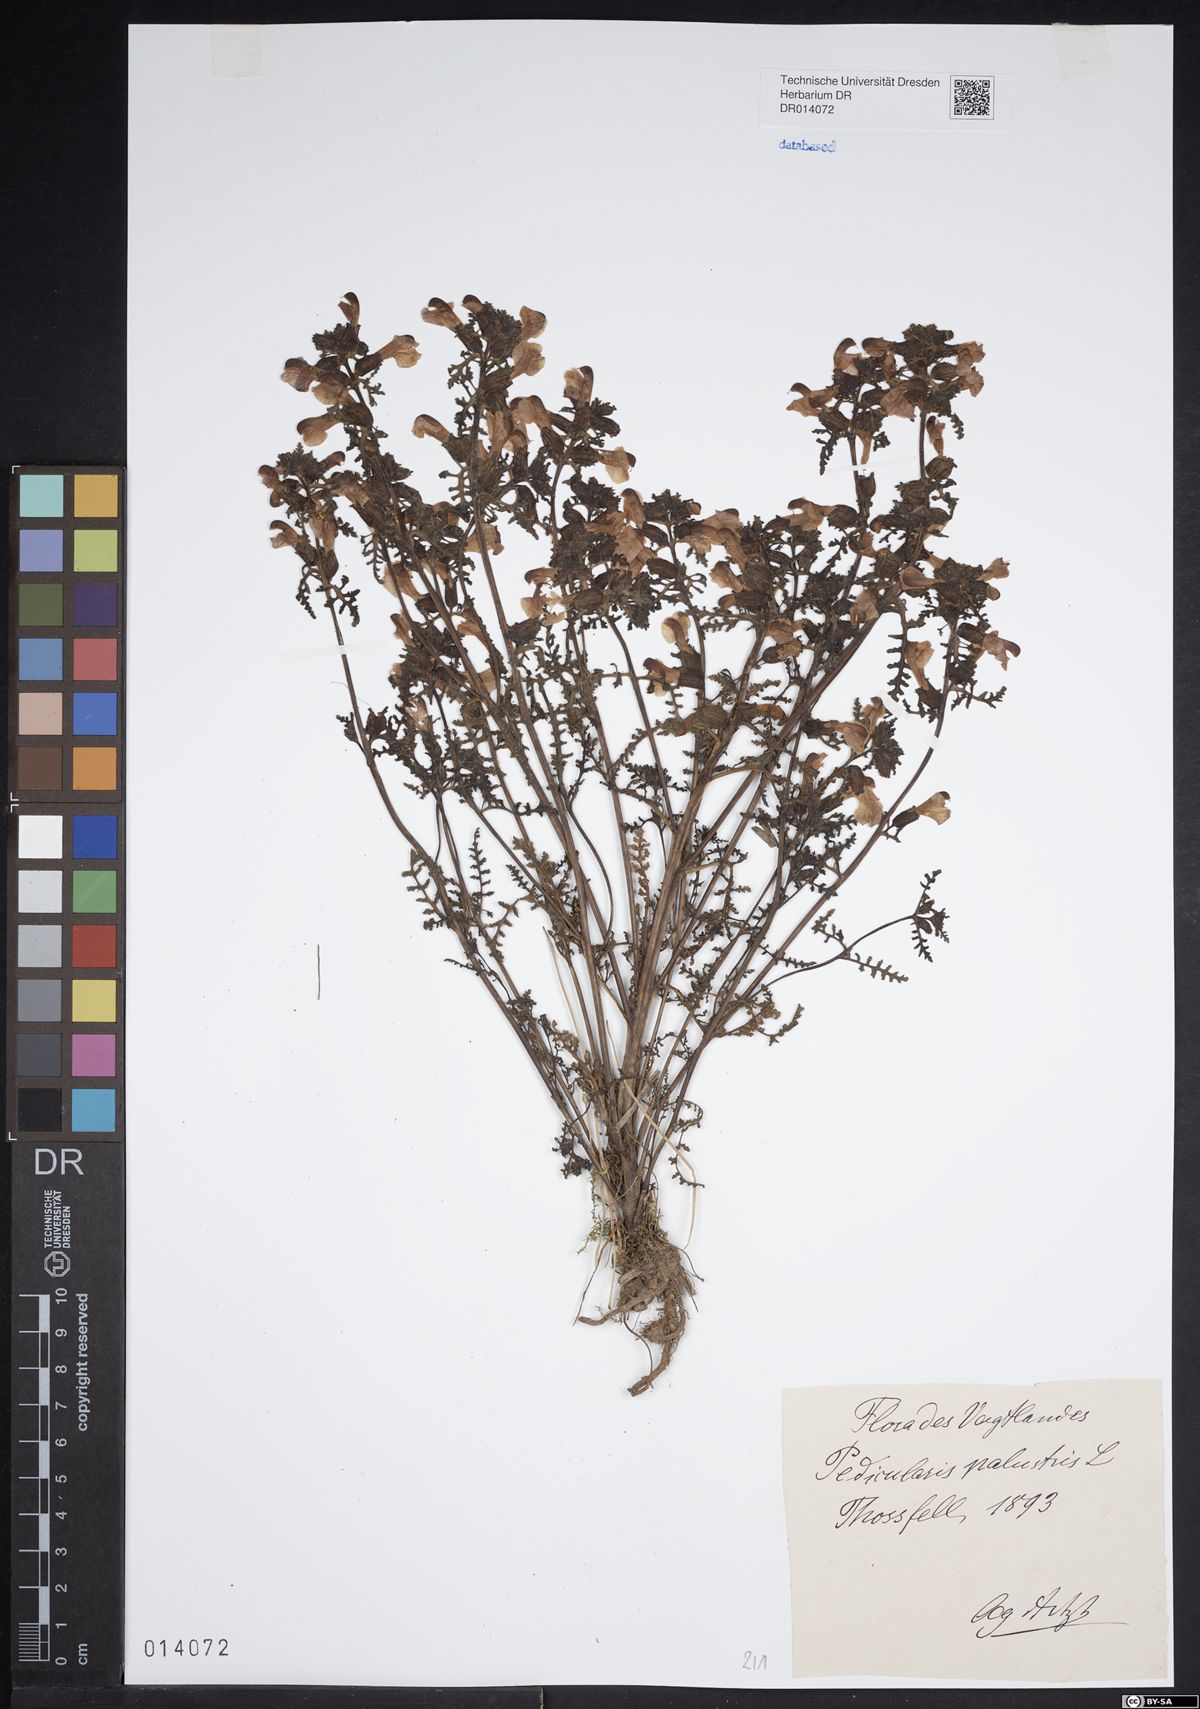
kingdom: Plantae
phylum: Tracheophyta
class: Magnoliopsida
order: Lamiales
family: Orobanchaceae
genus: Pedicularis
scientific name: Pedicularis palustris
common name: Marsh lousewort
